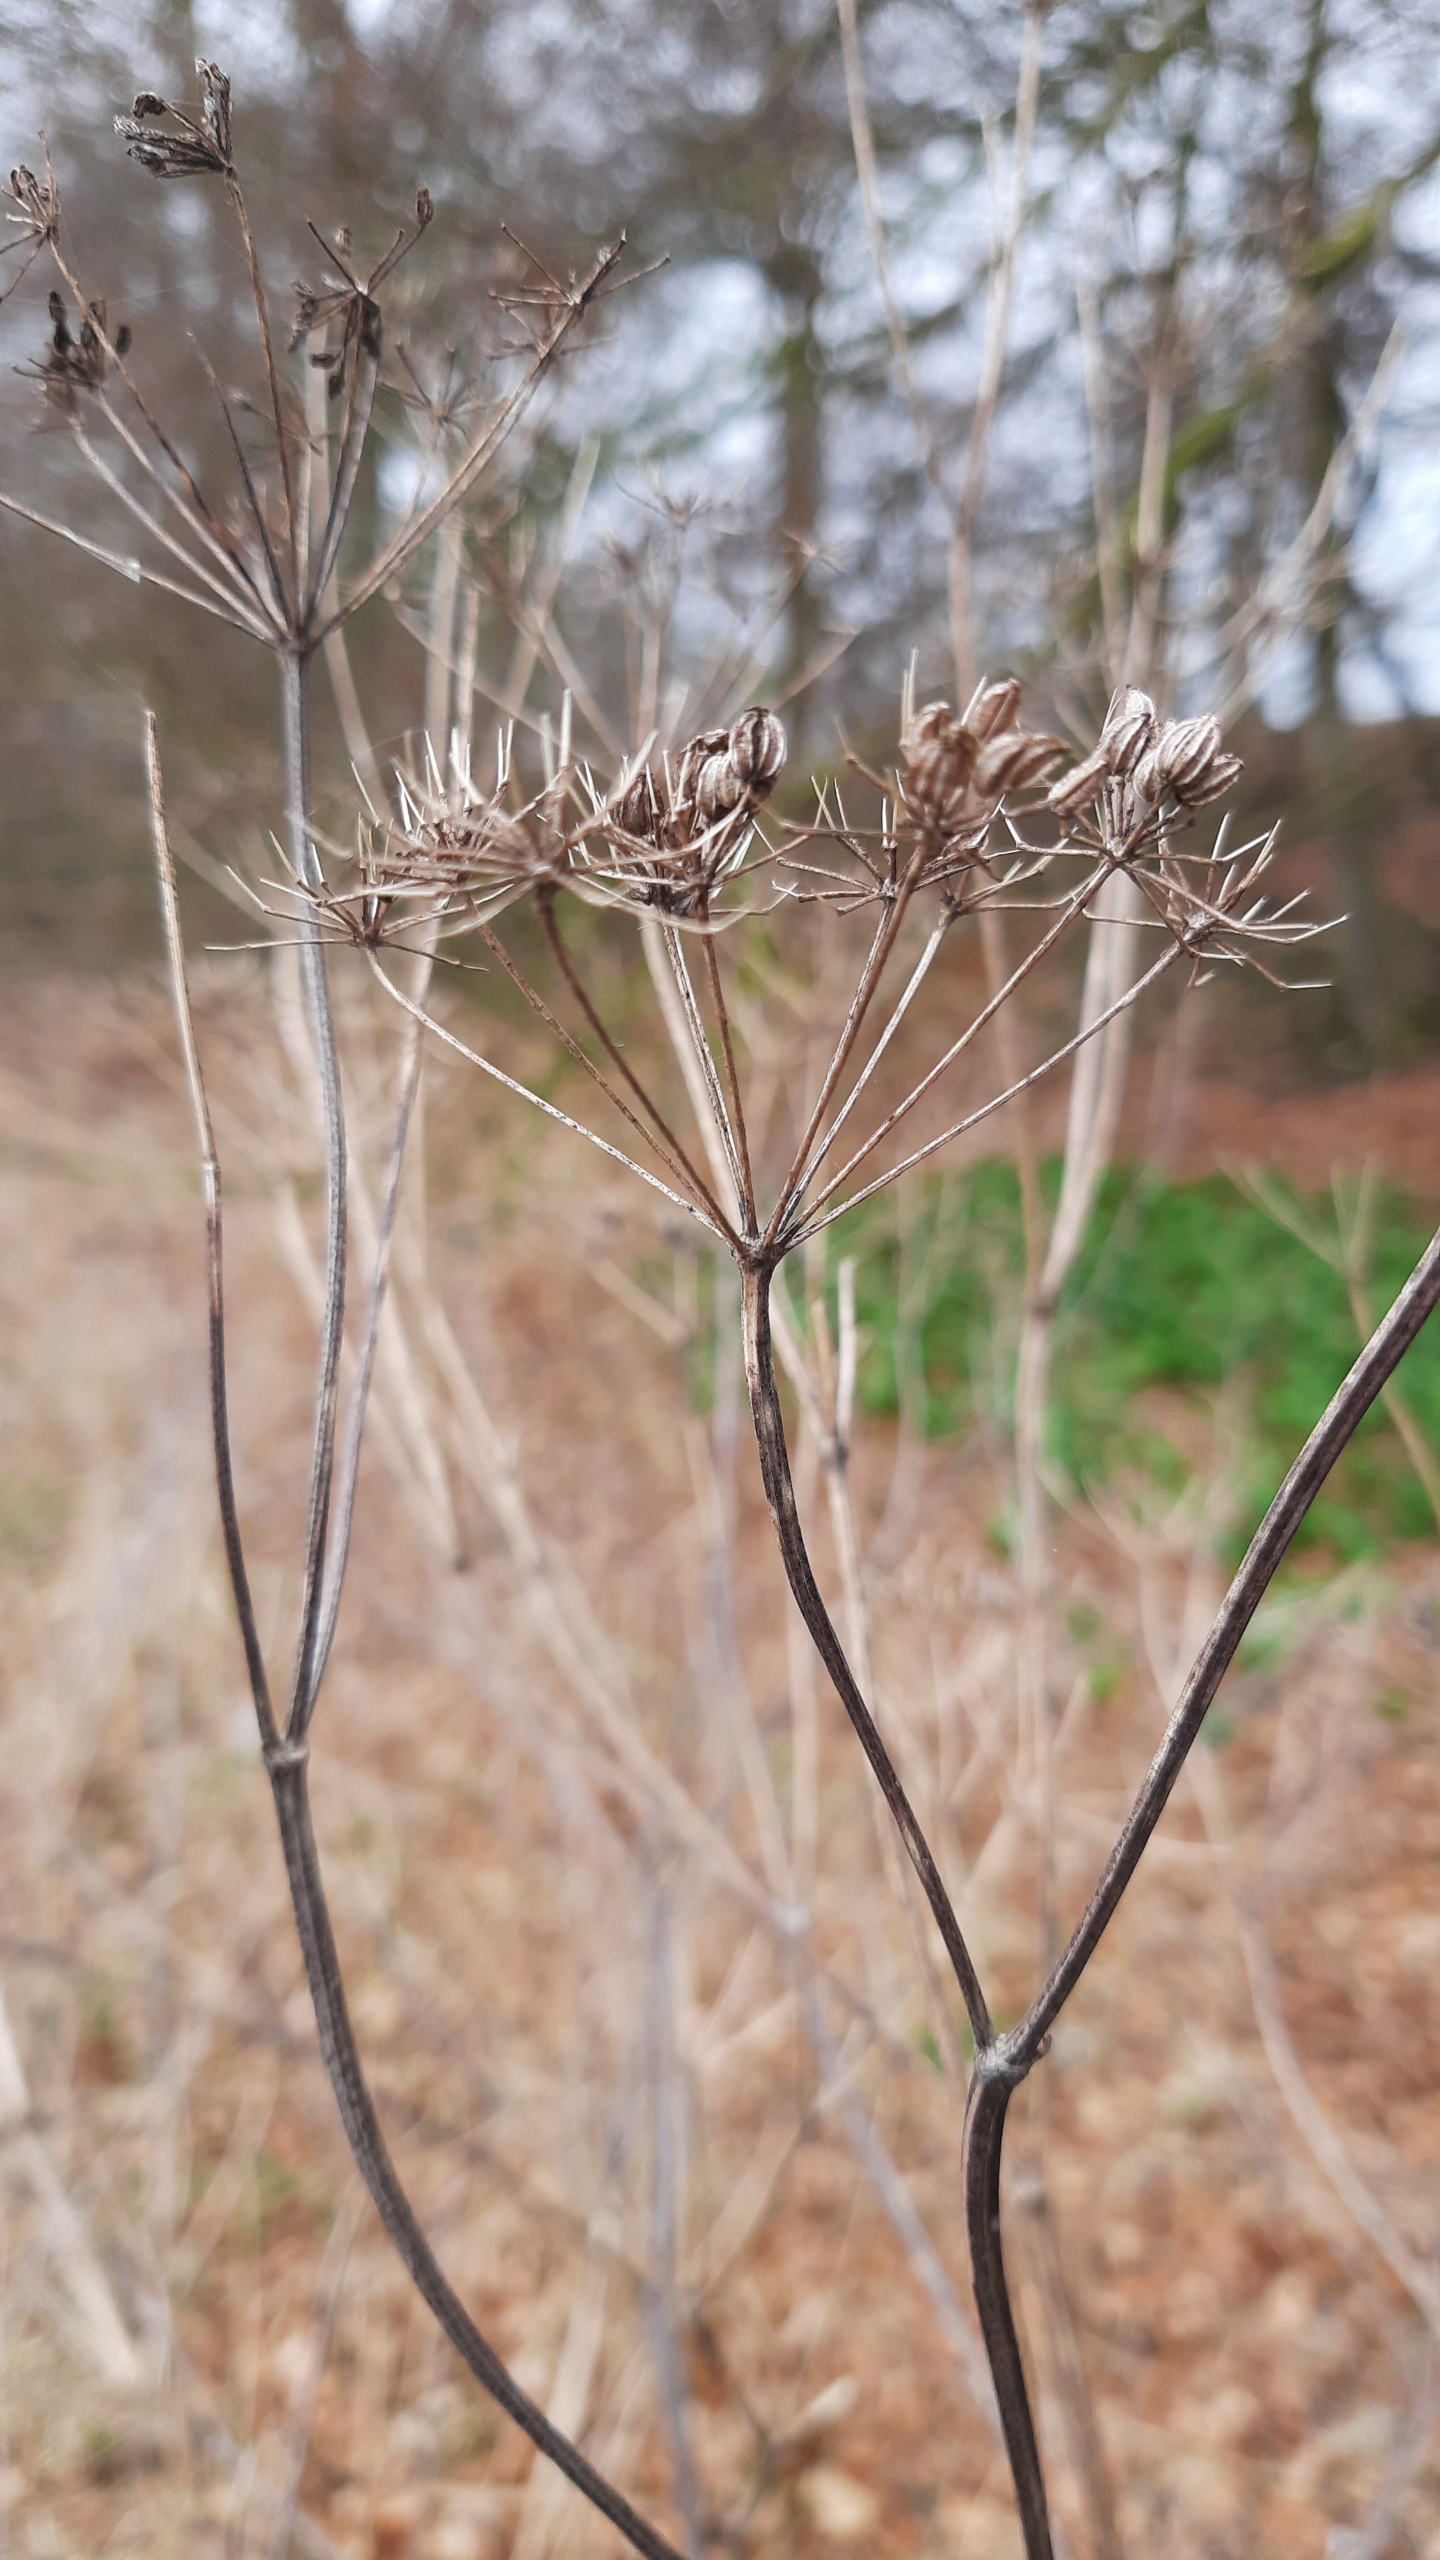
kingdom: Plantae
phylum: Tracheophyta
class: Magnoliopsida
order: Apiales
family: Apiaceae
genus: Conium
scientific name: Conium maculatum
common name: Skarntyde
